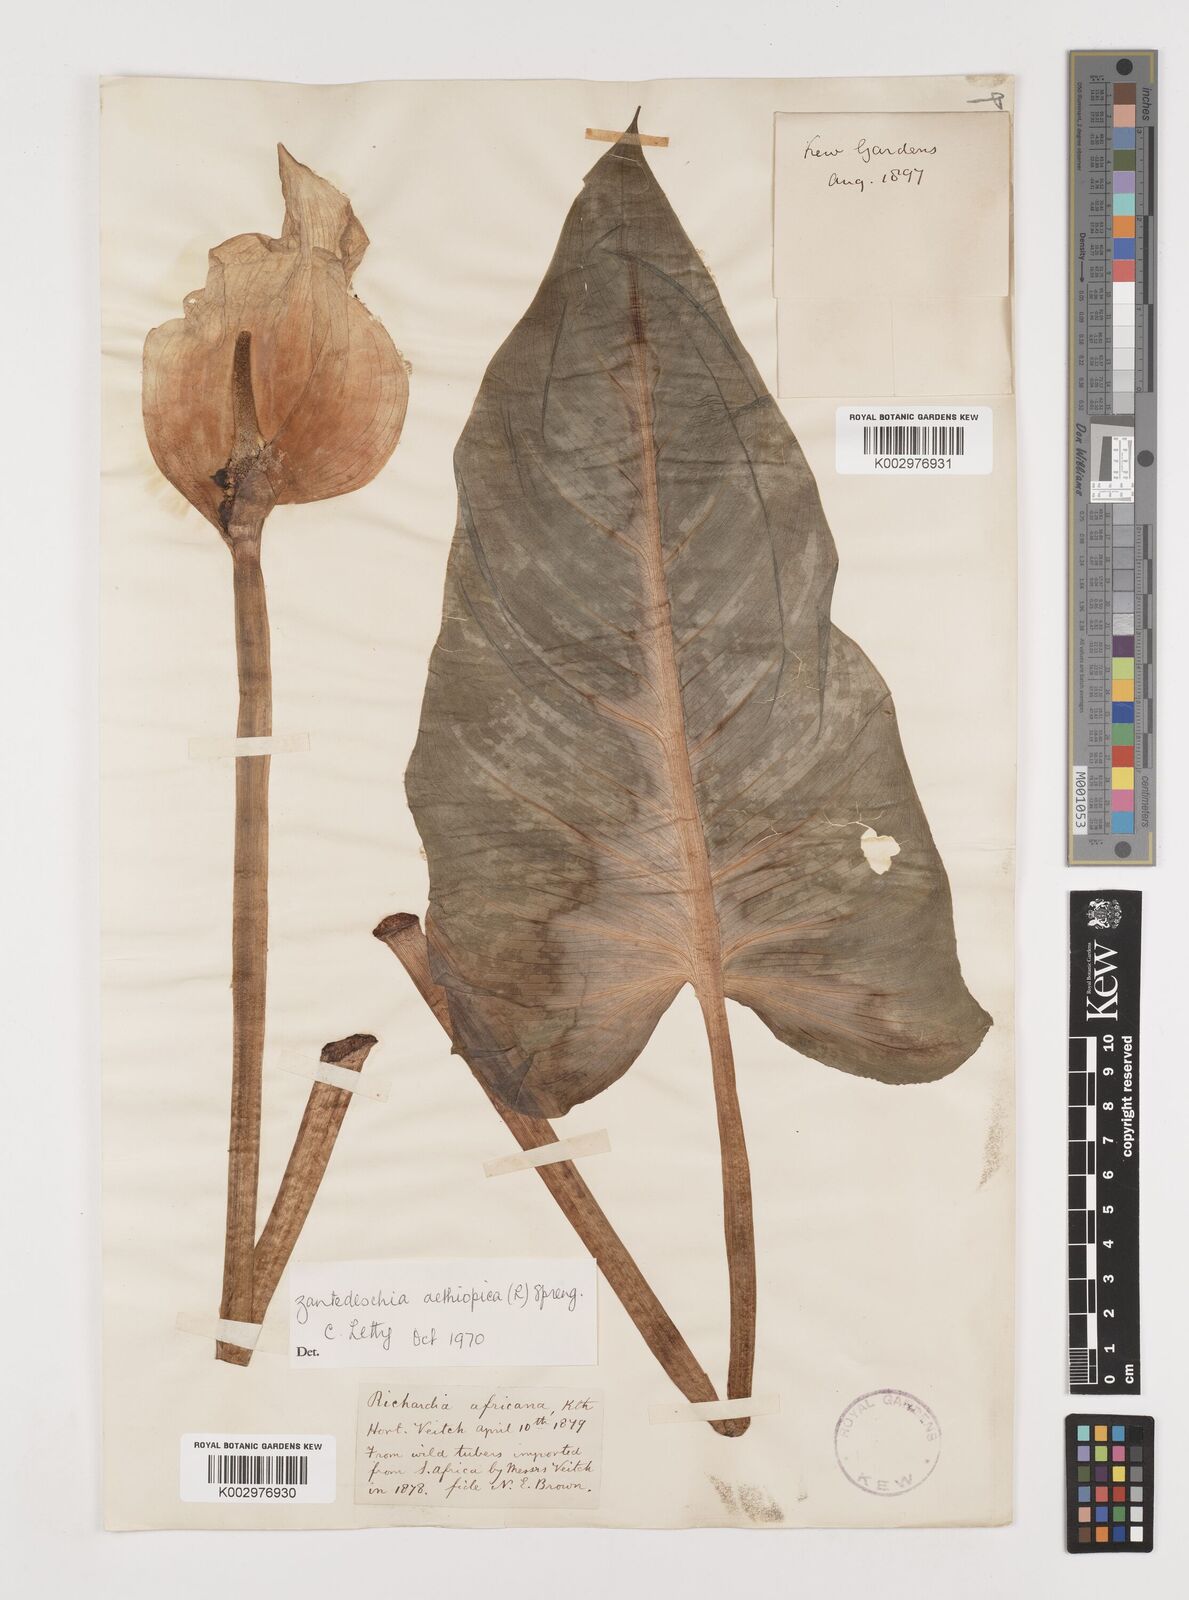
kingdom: Plantae
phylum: Tracheophyta
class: Liliopsida
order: Alismatales
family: Araceae
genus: Zantedeschia
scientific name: Zantedeschia aethiopica
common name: Altar-lily
